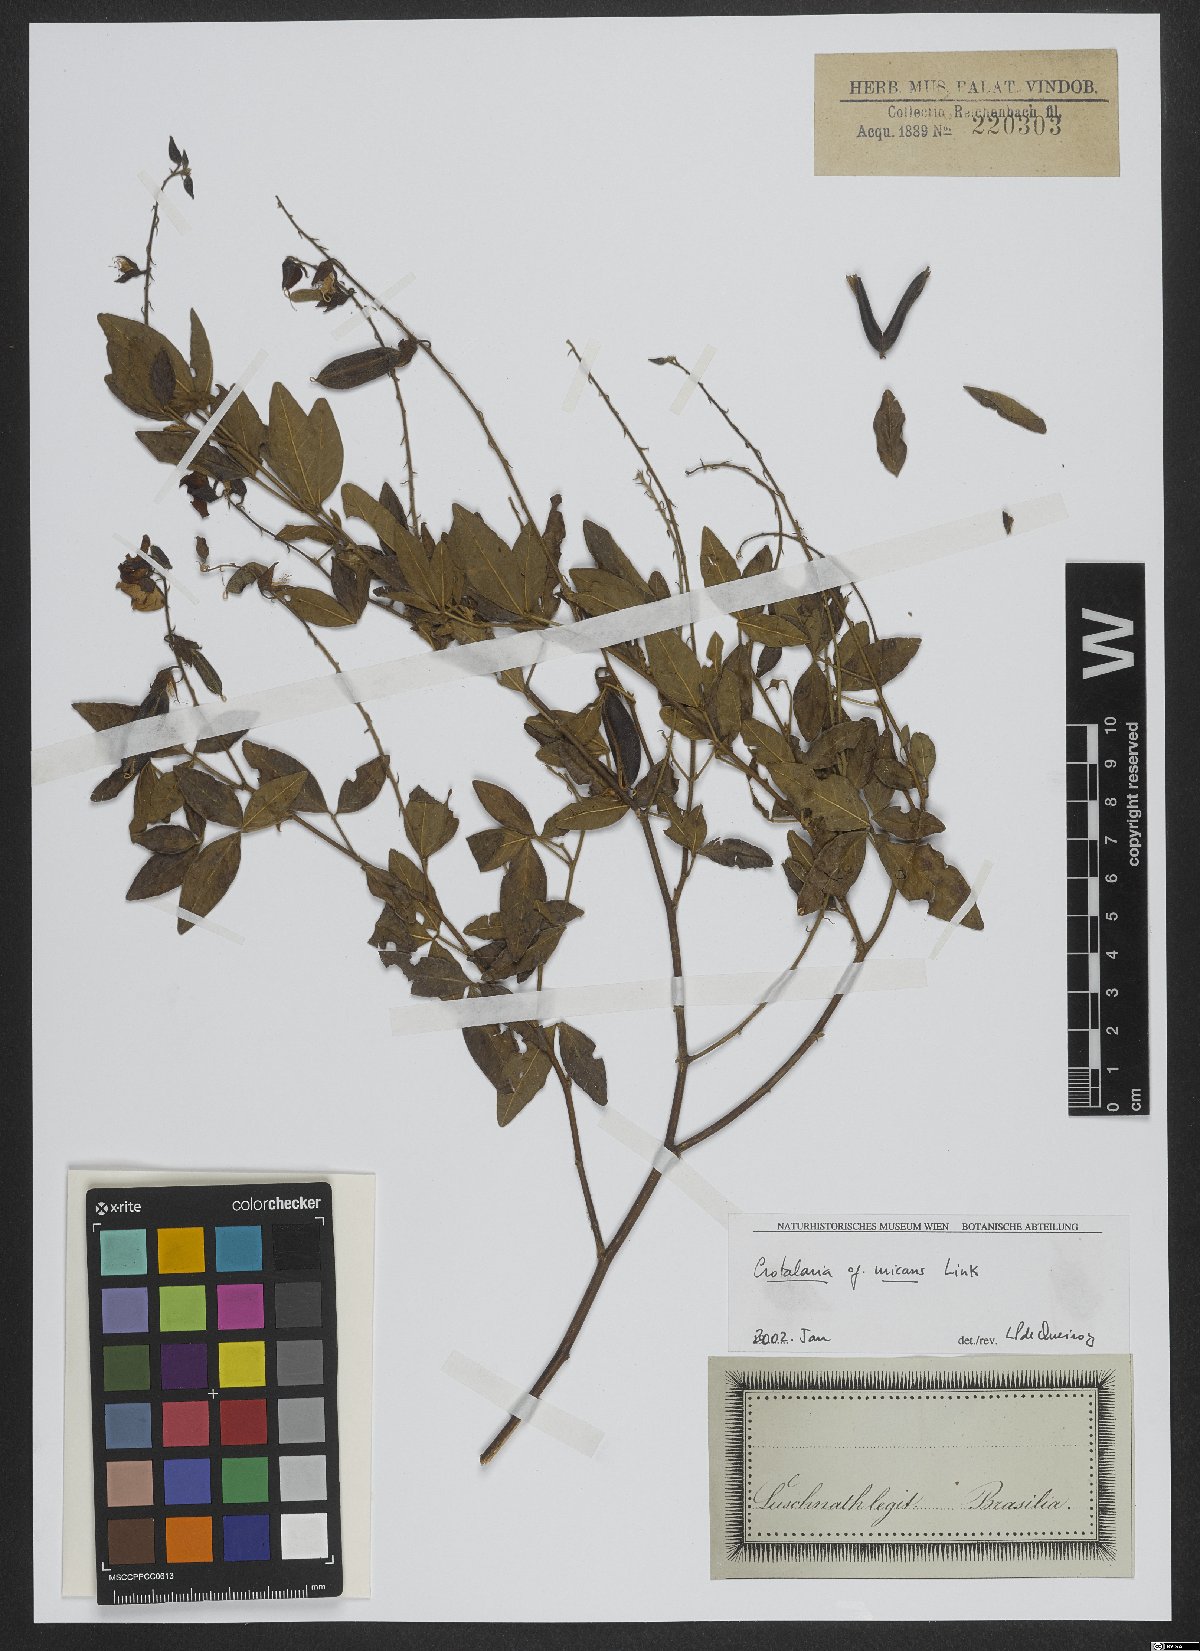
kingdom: Plantae
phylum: Tracheophyta
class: Magnoliopsida
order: Fabales
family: Fabaceae
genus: Crotalaria
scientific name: Crotalaria micans
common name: Caracas rattlebox
